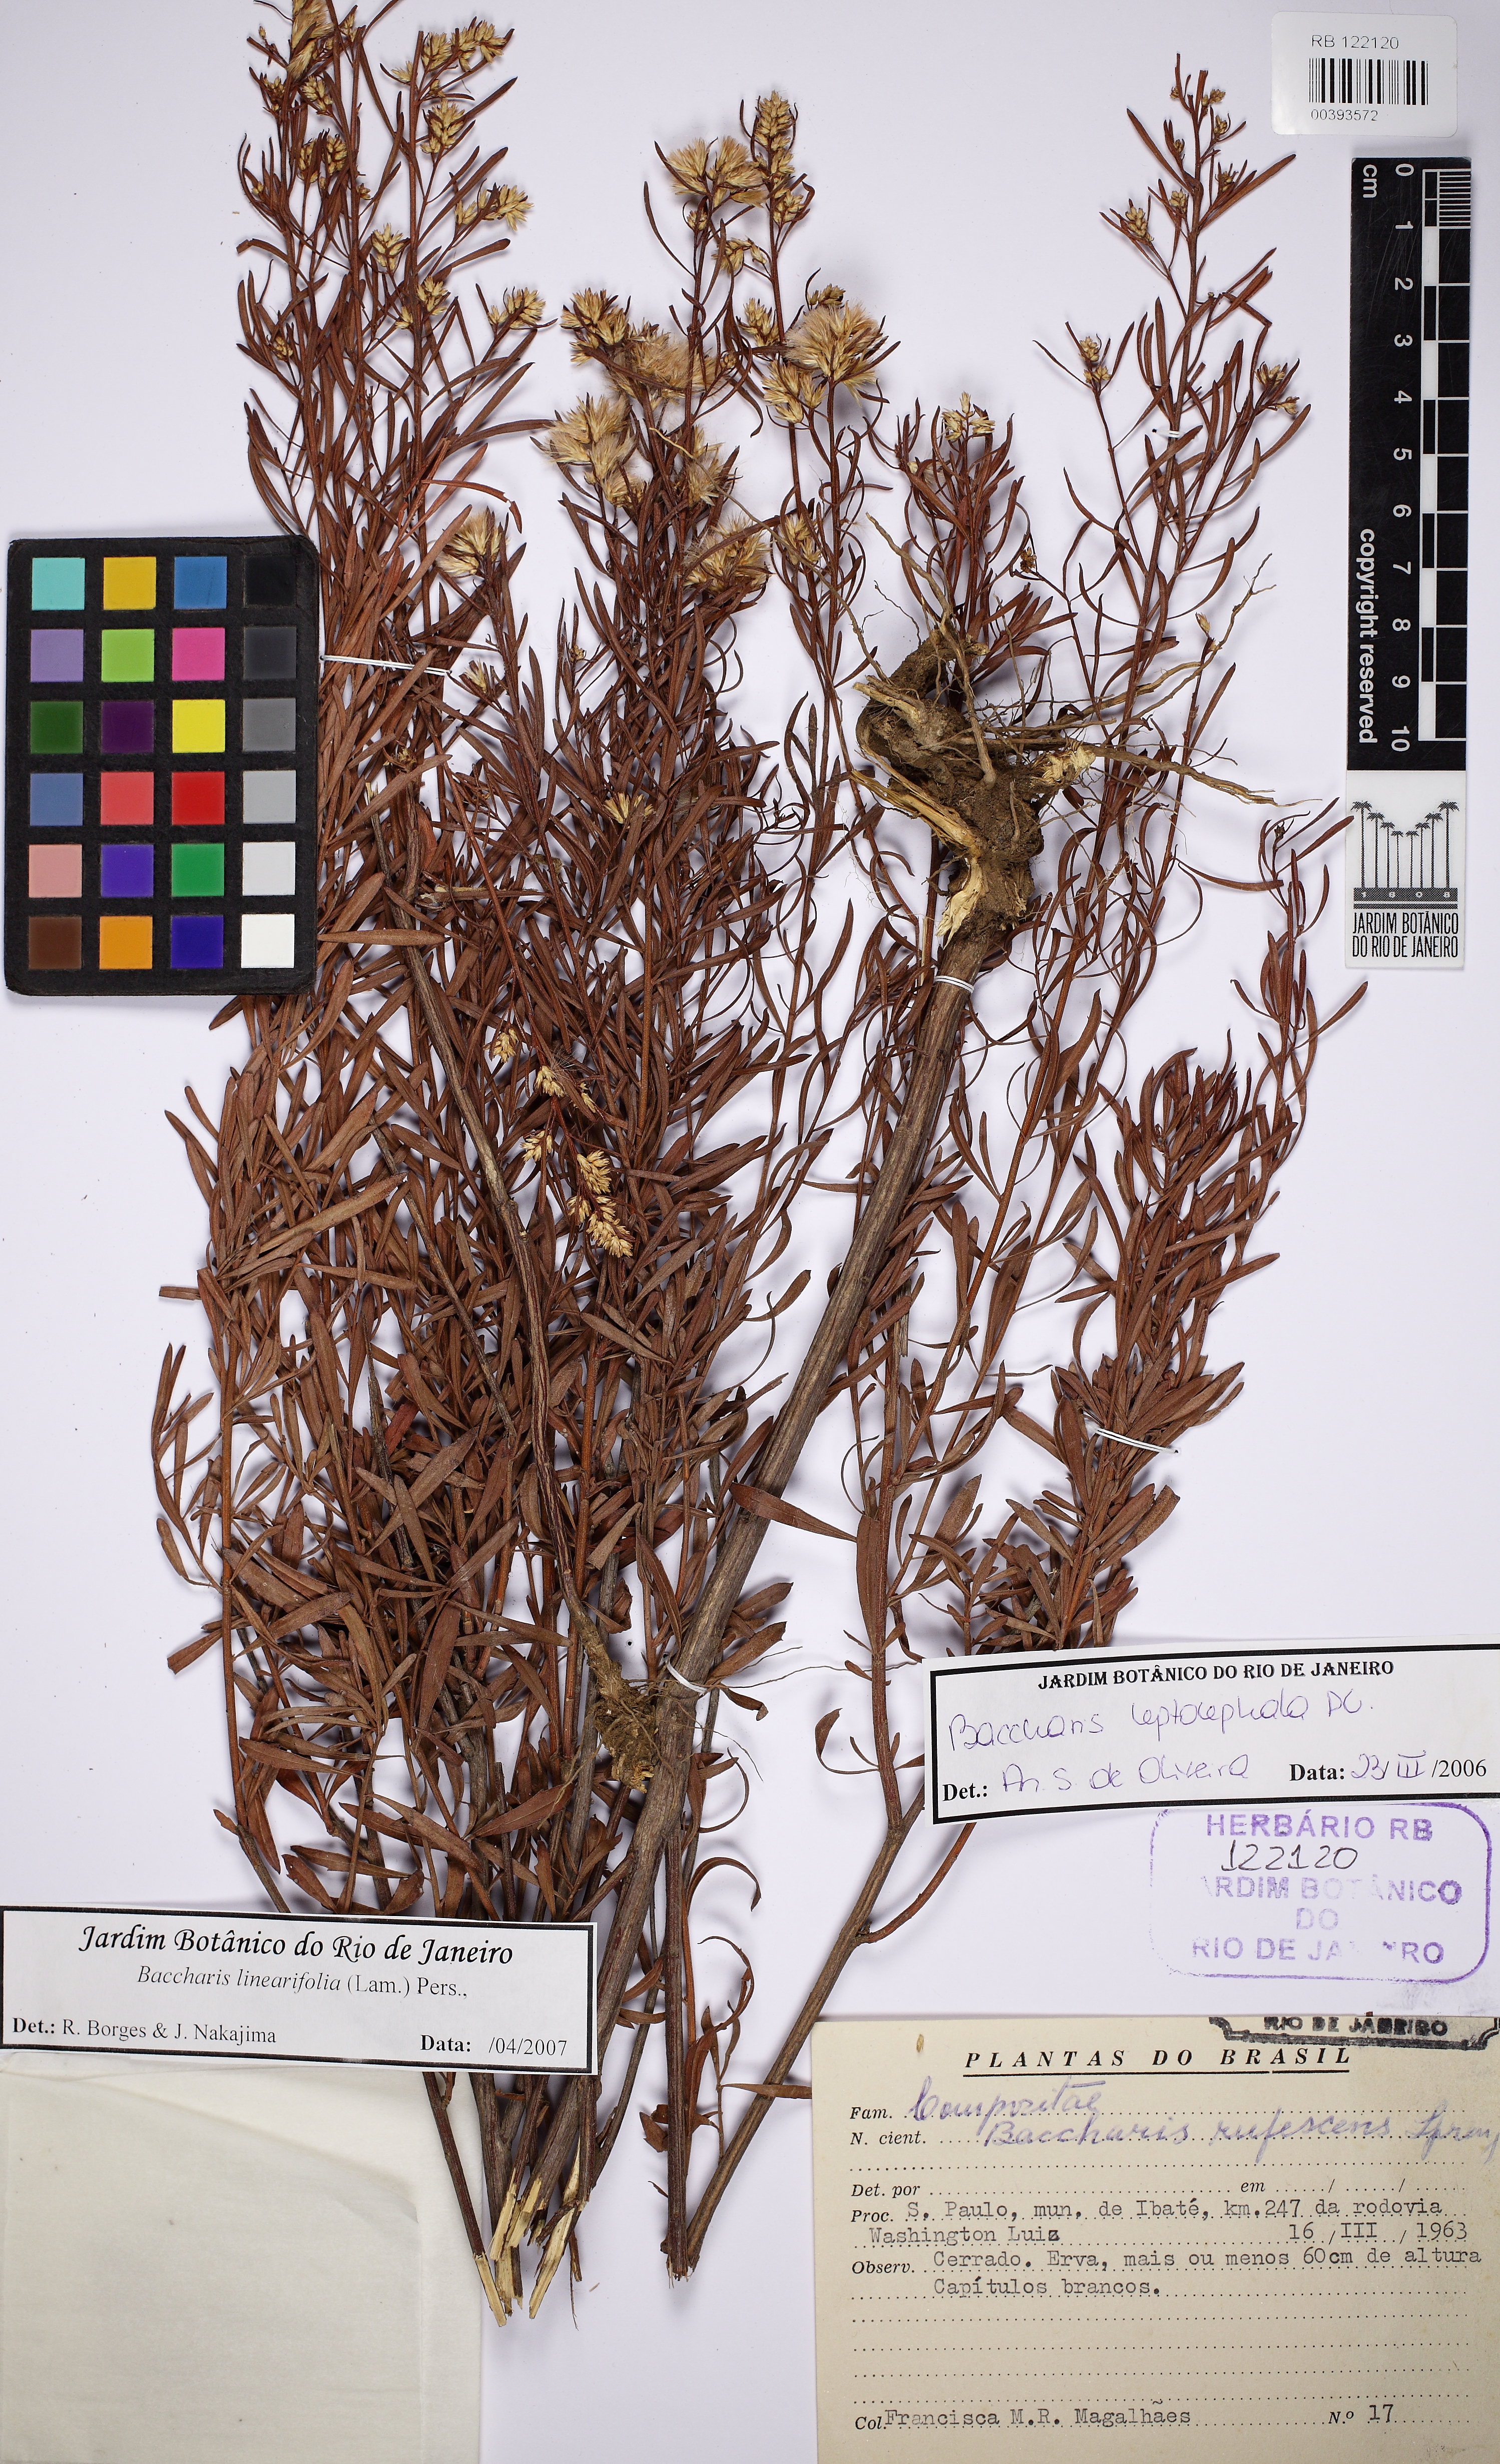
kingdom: Plantae
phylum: Tracheophyta
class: Magnoliopsida
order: Asterales
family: Asteraceae
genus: Baccharis
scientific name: Baccharis linearifolia
